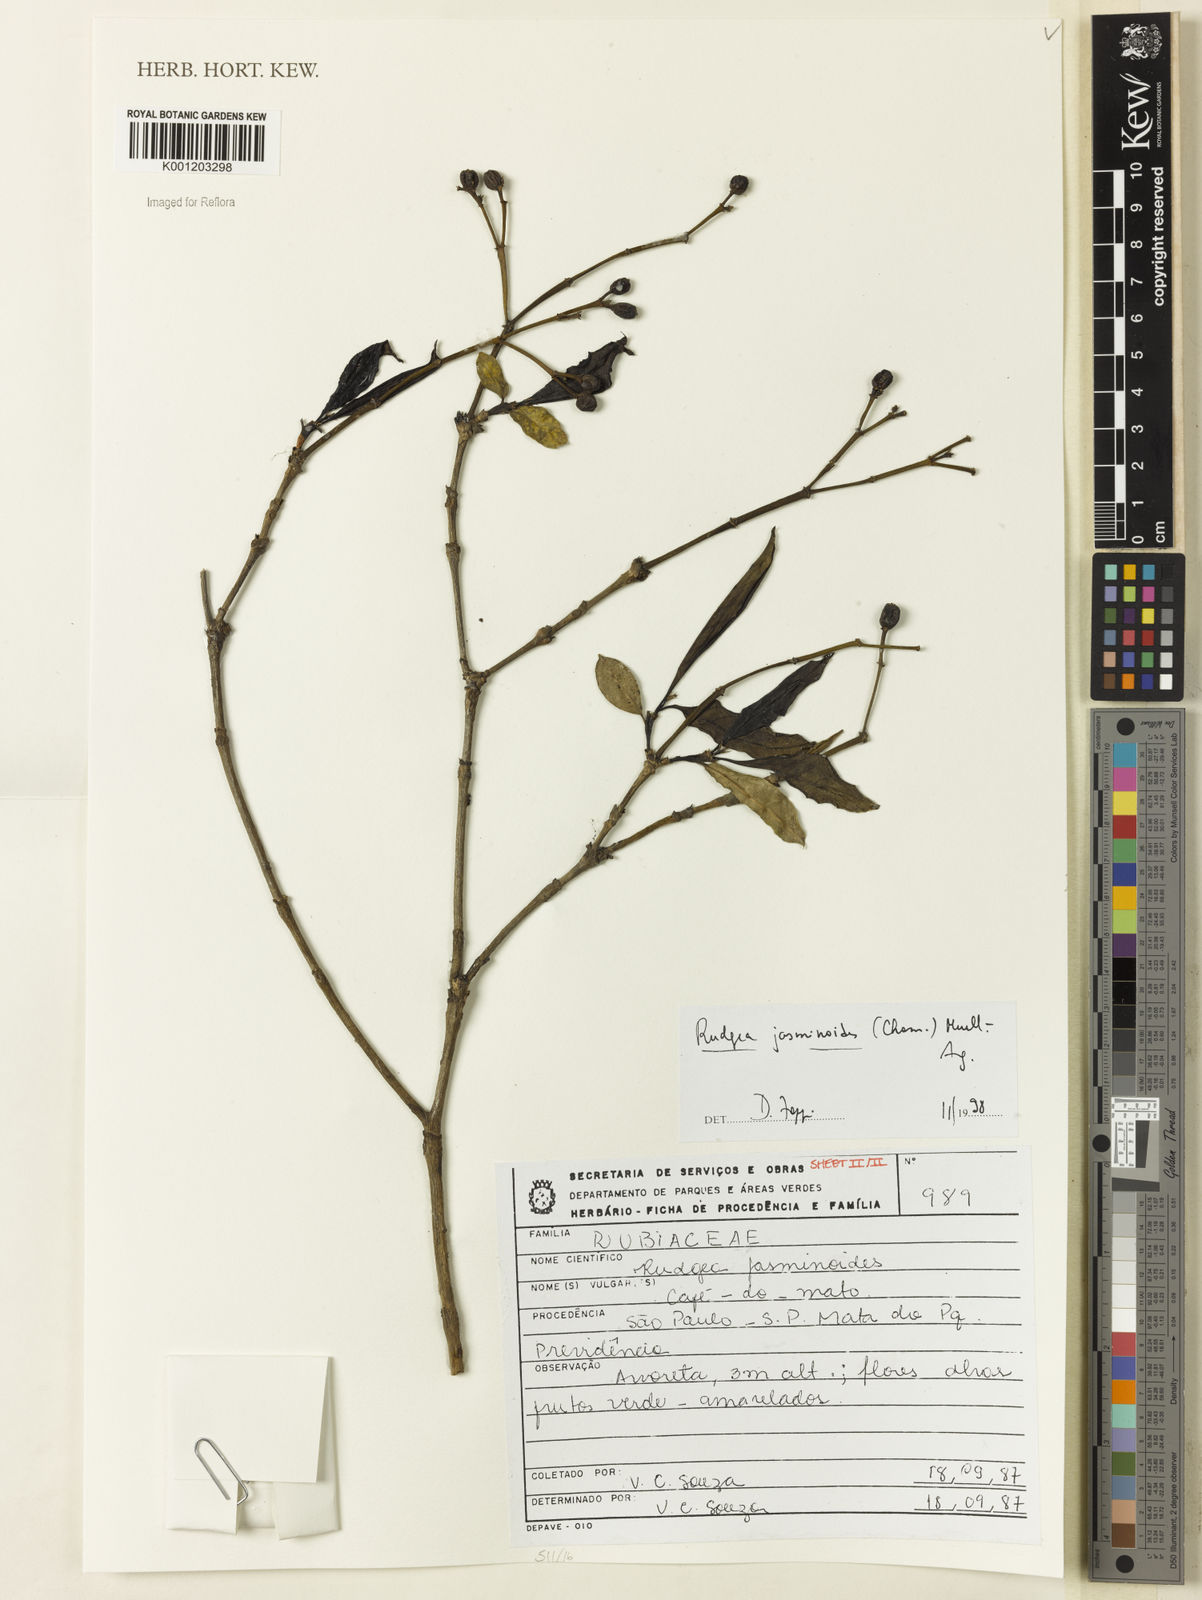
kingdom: Plantae
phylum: Tracheophyta
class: Magnoliopsida
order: Gentianales
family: Rubiaceae
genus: Rudgea
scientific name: Rudgea
